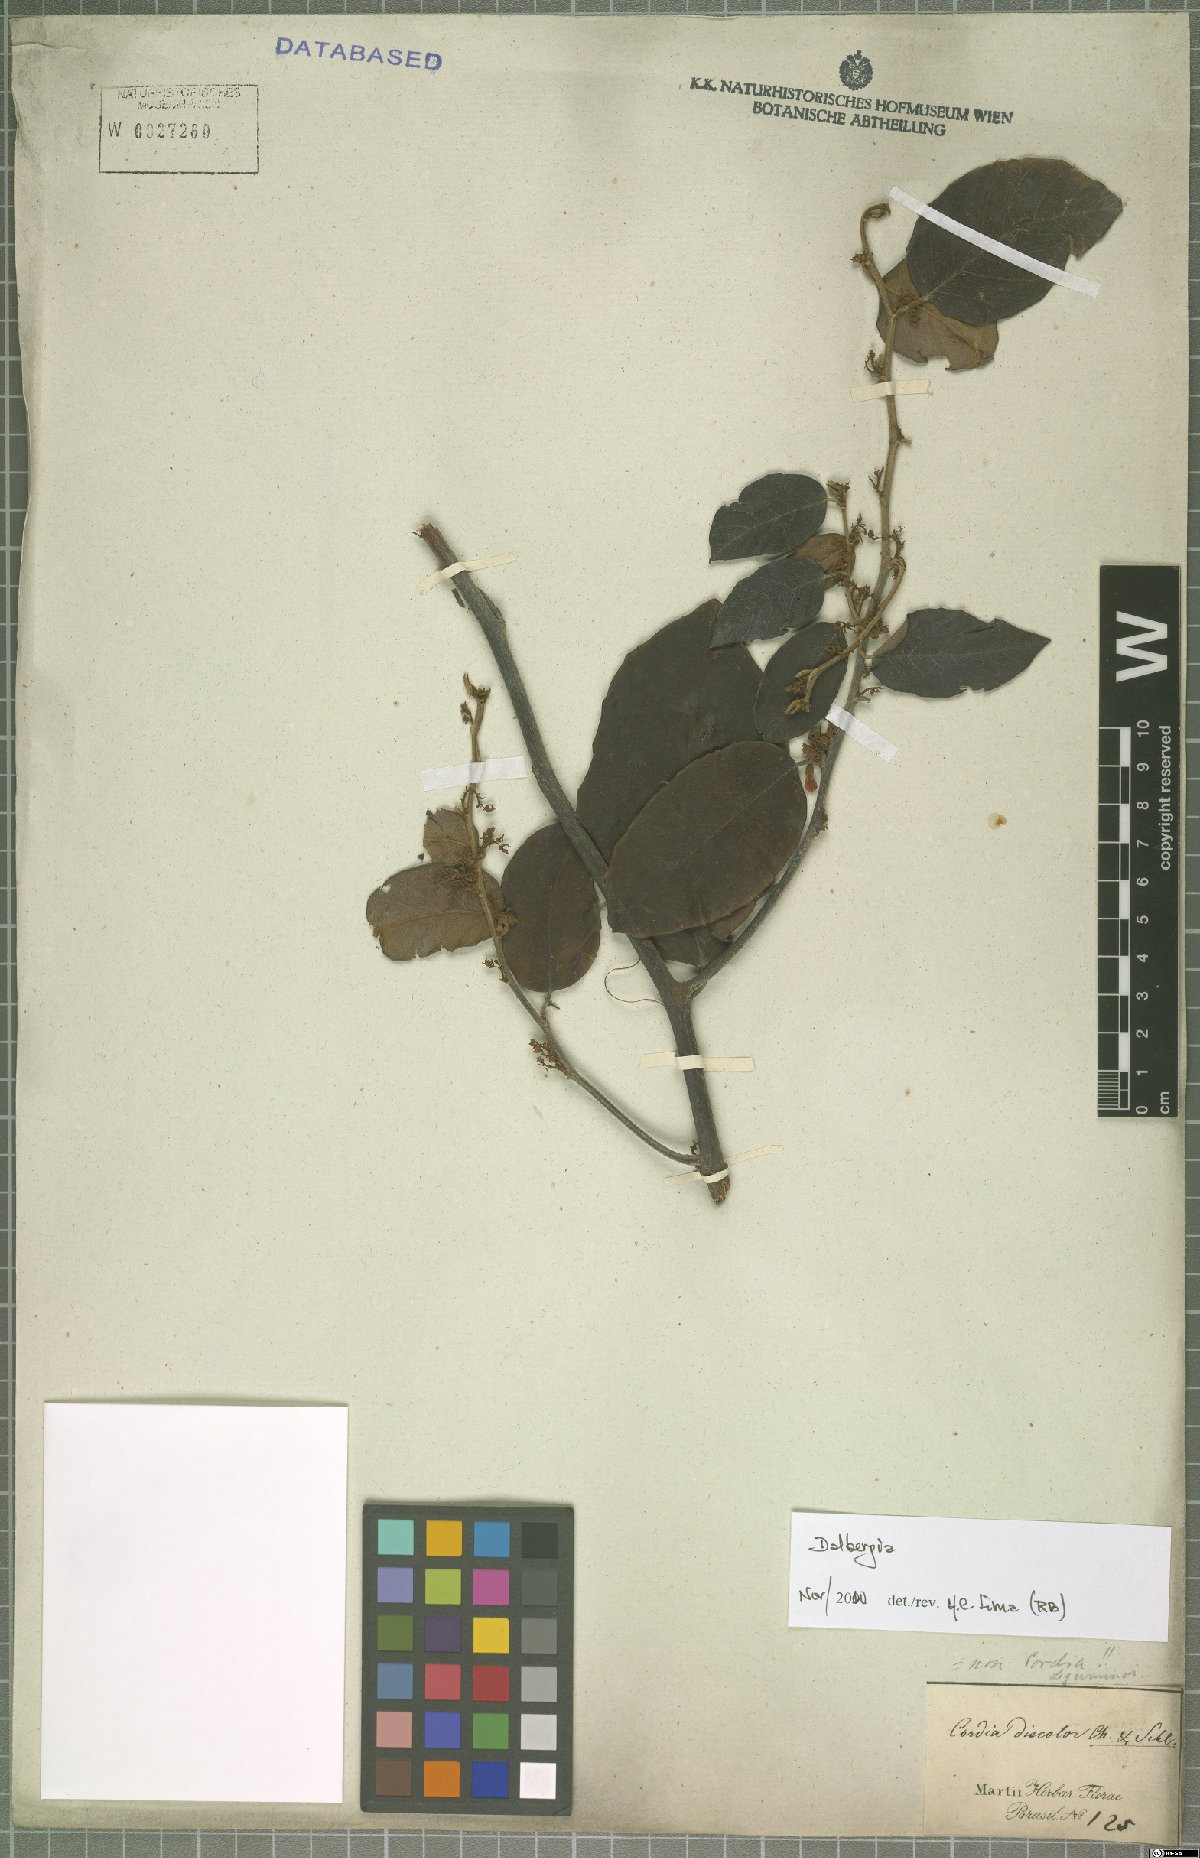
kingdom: Plantae
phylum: Tracheophyta
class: Magnoliopsida
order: Fabales
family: Fabaceae
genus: Dalbergia
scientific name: Dalbergia
